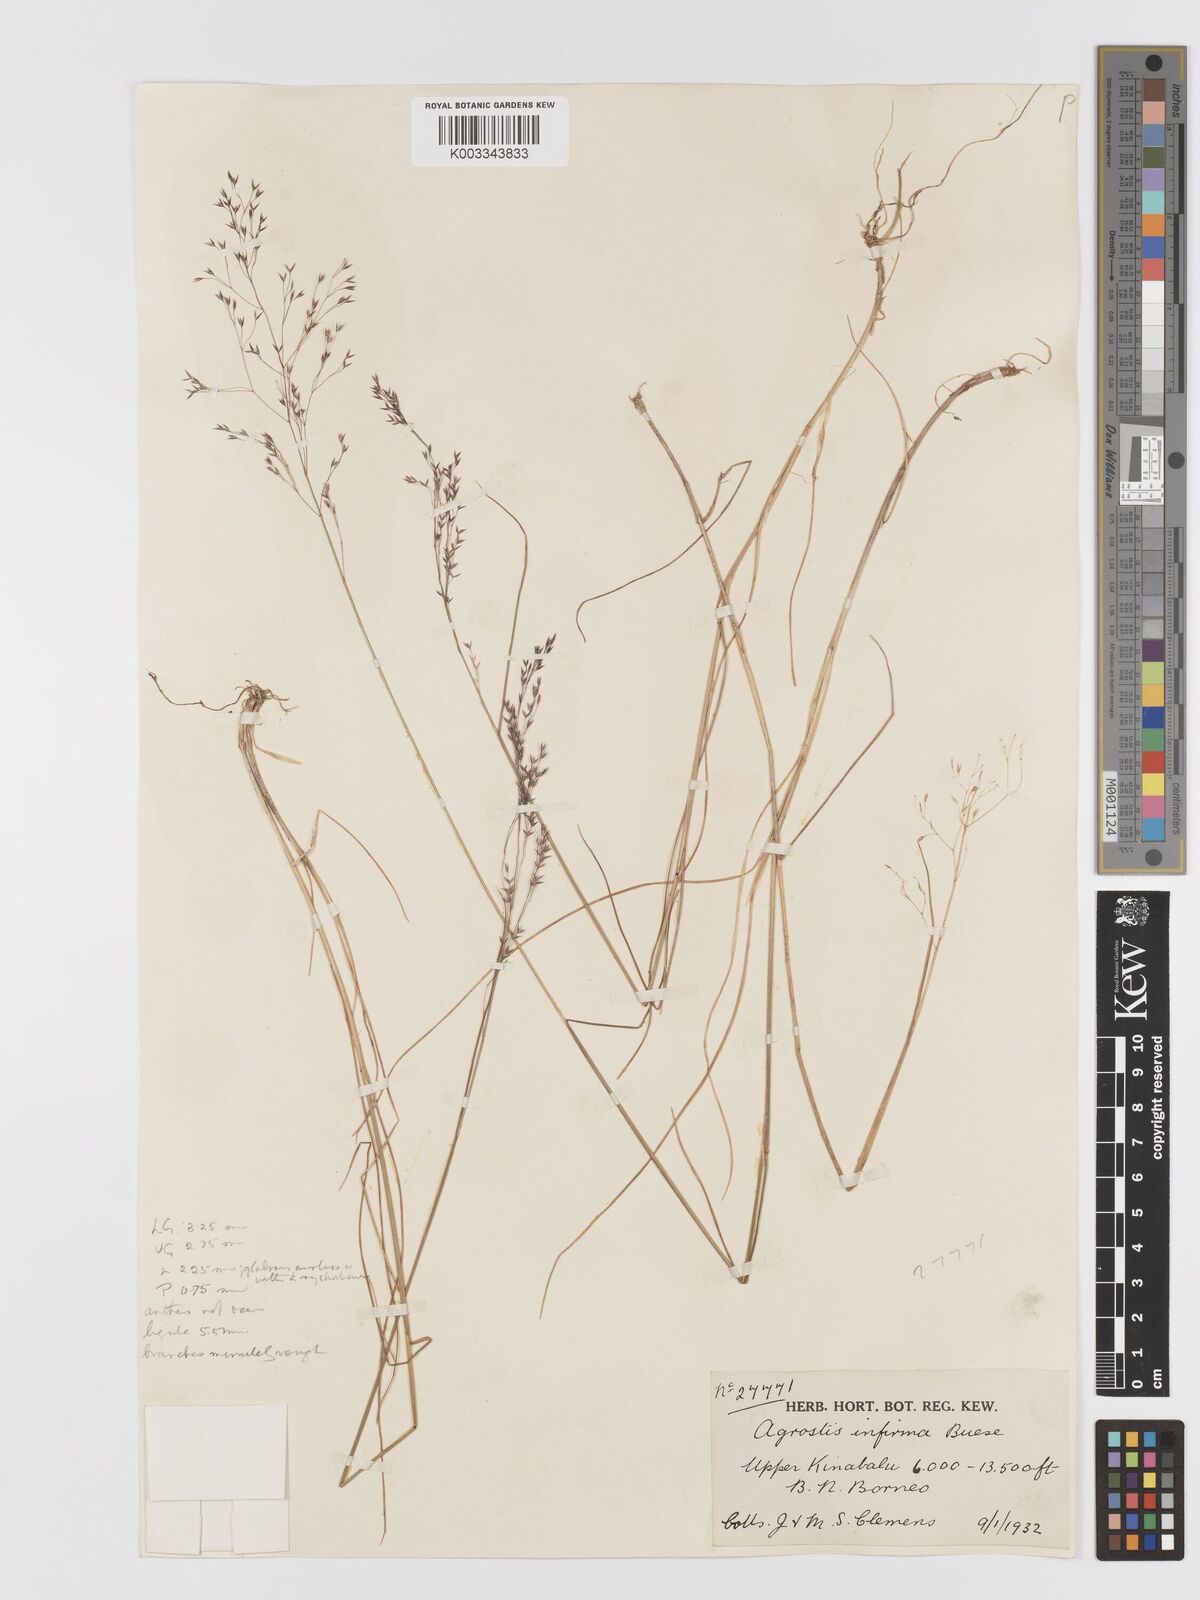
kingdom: Plantae
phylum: Tracheophyta
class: Liliopsida
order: Poales
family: Poaceae
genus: Agrostis
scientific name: Agrostis infirma
